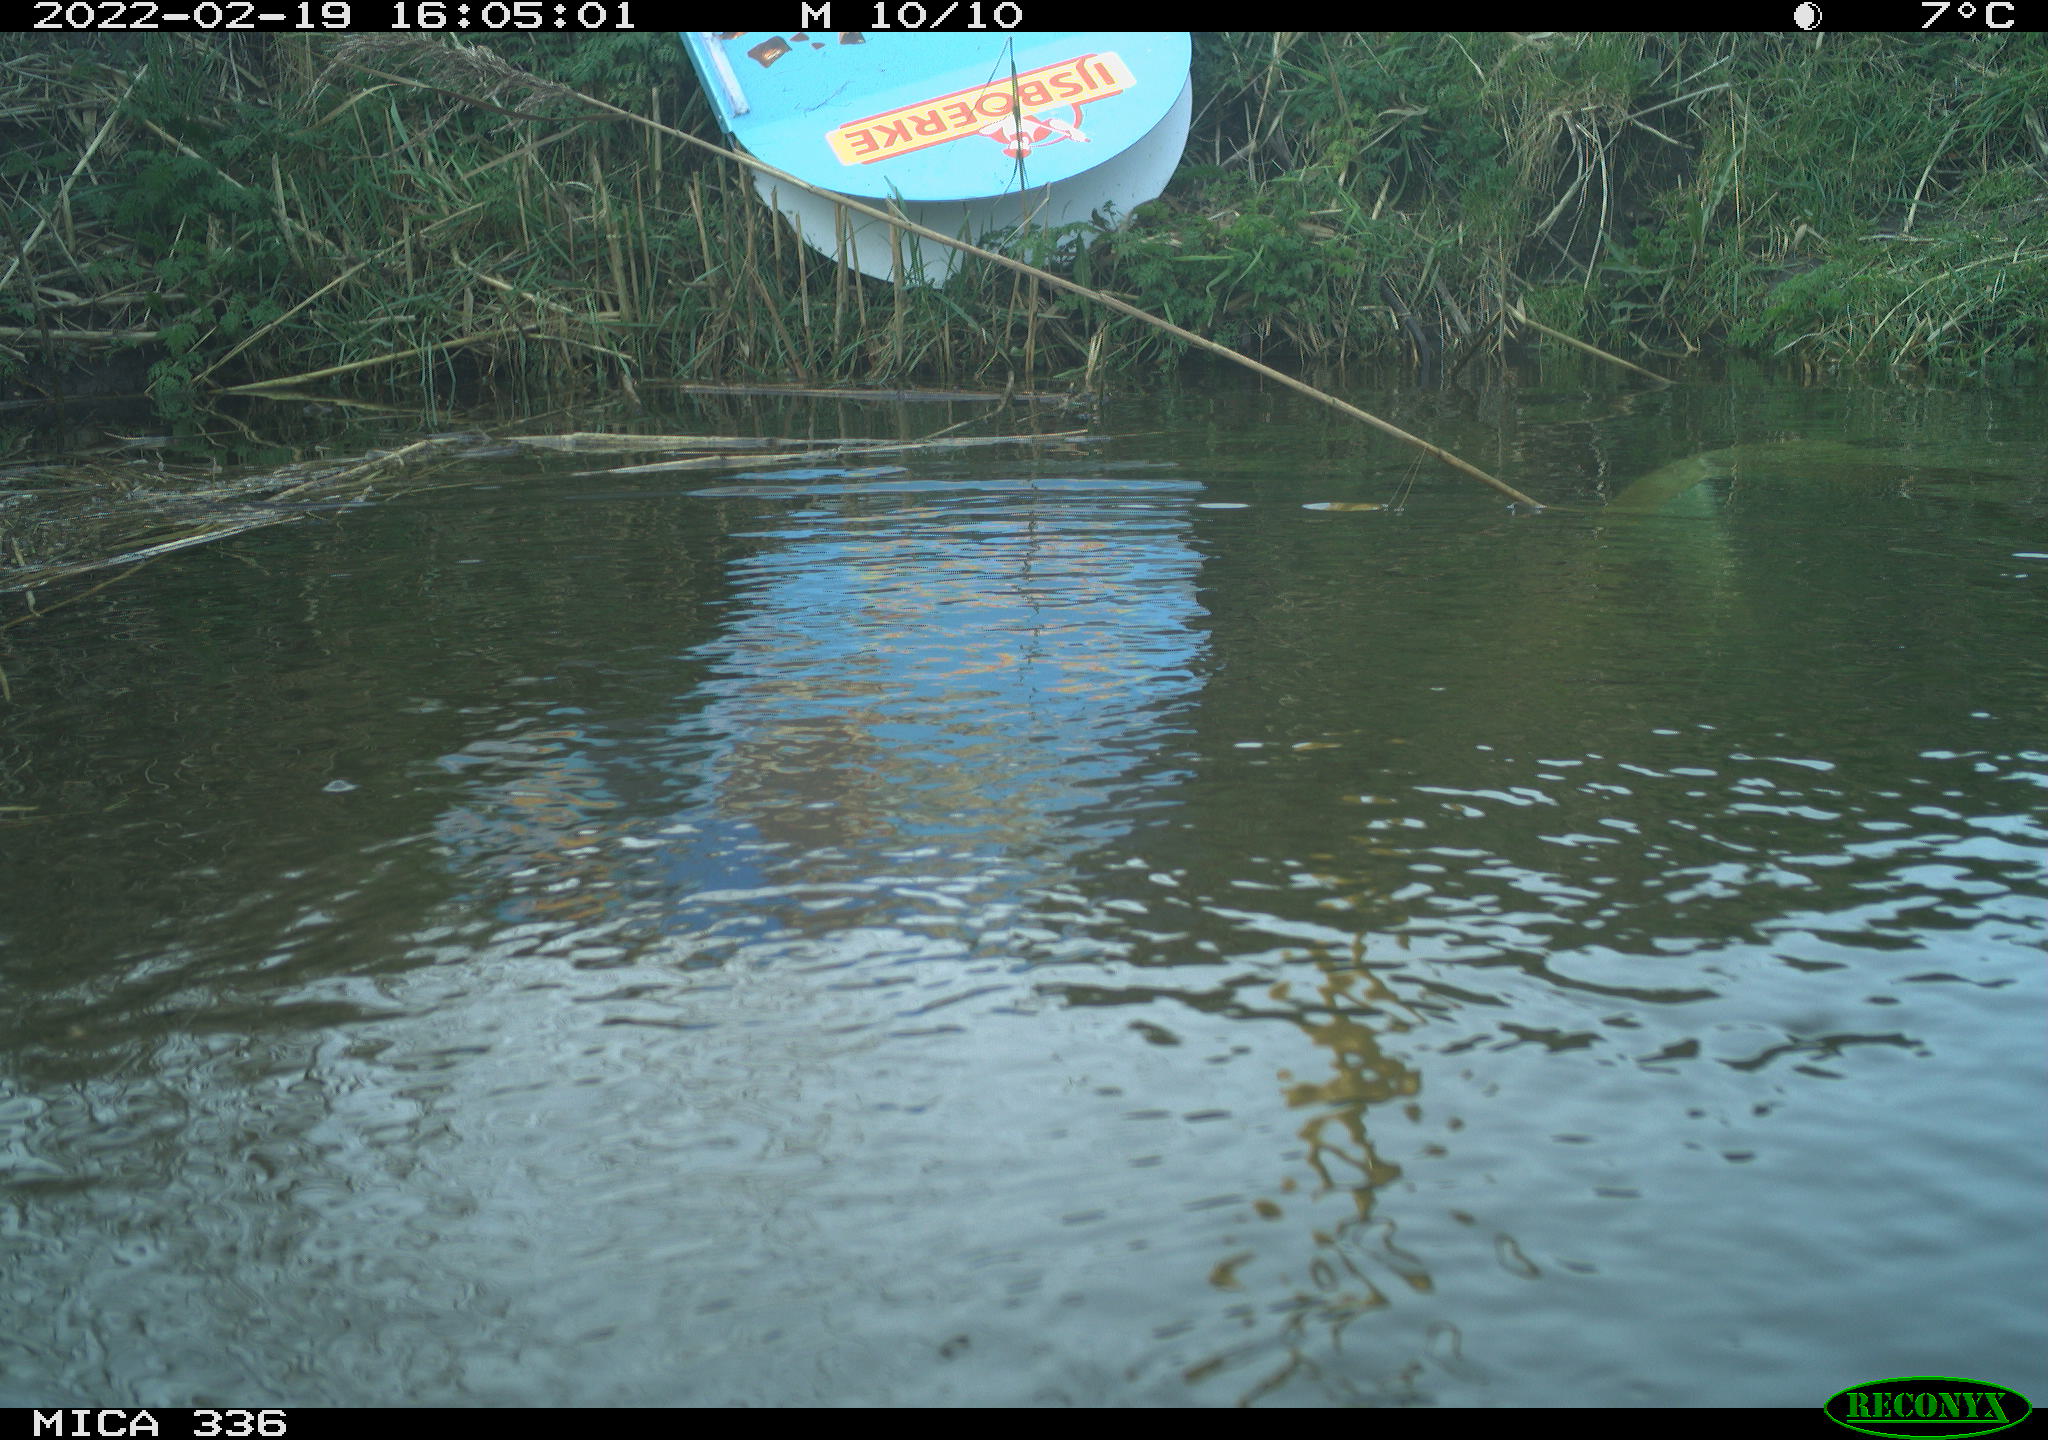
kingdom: Animalia
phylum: Chordata
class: Aves
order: Podicipediformes
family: Podicipedidae
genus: Podiceps
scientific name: Podiceps cristatus
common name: Great crested grebe
